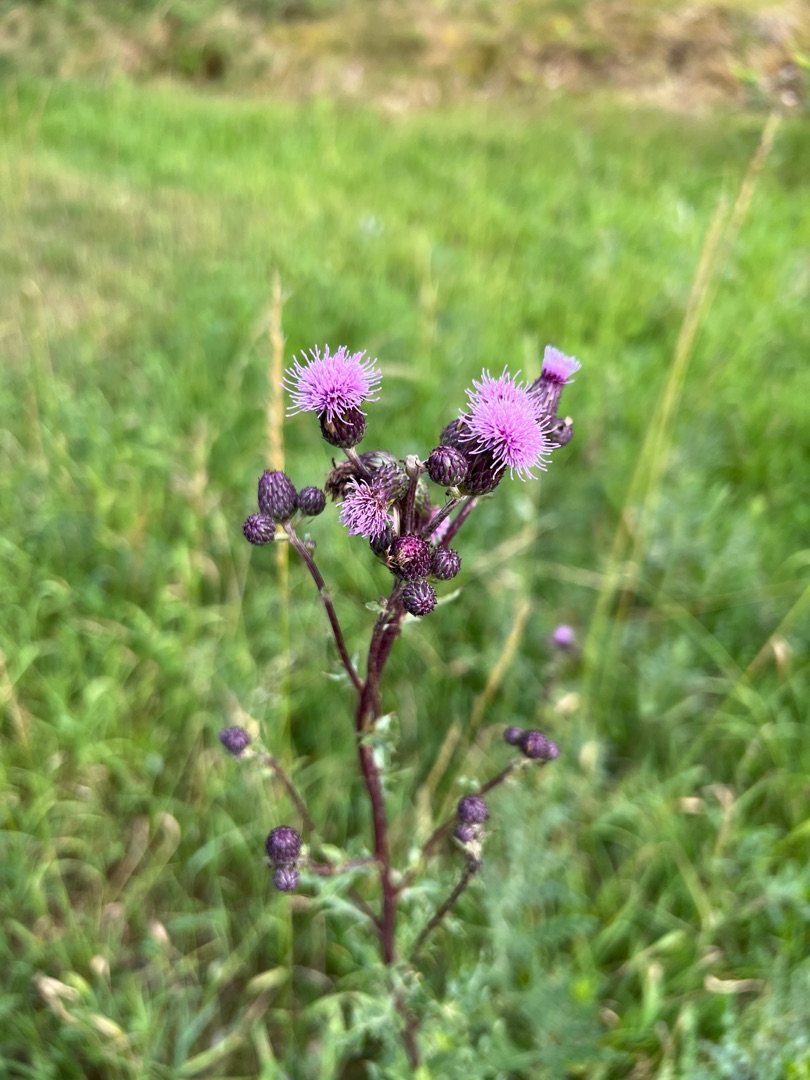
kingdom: Plantae
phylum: Tracheophyta
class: Magnoliopsida
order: Asterales
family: Asteraceae
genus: Cirsium
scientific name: Cirsium arvense
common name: Ager-tidsel
